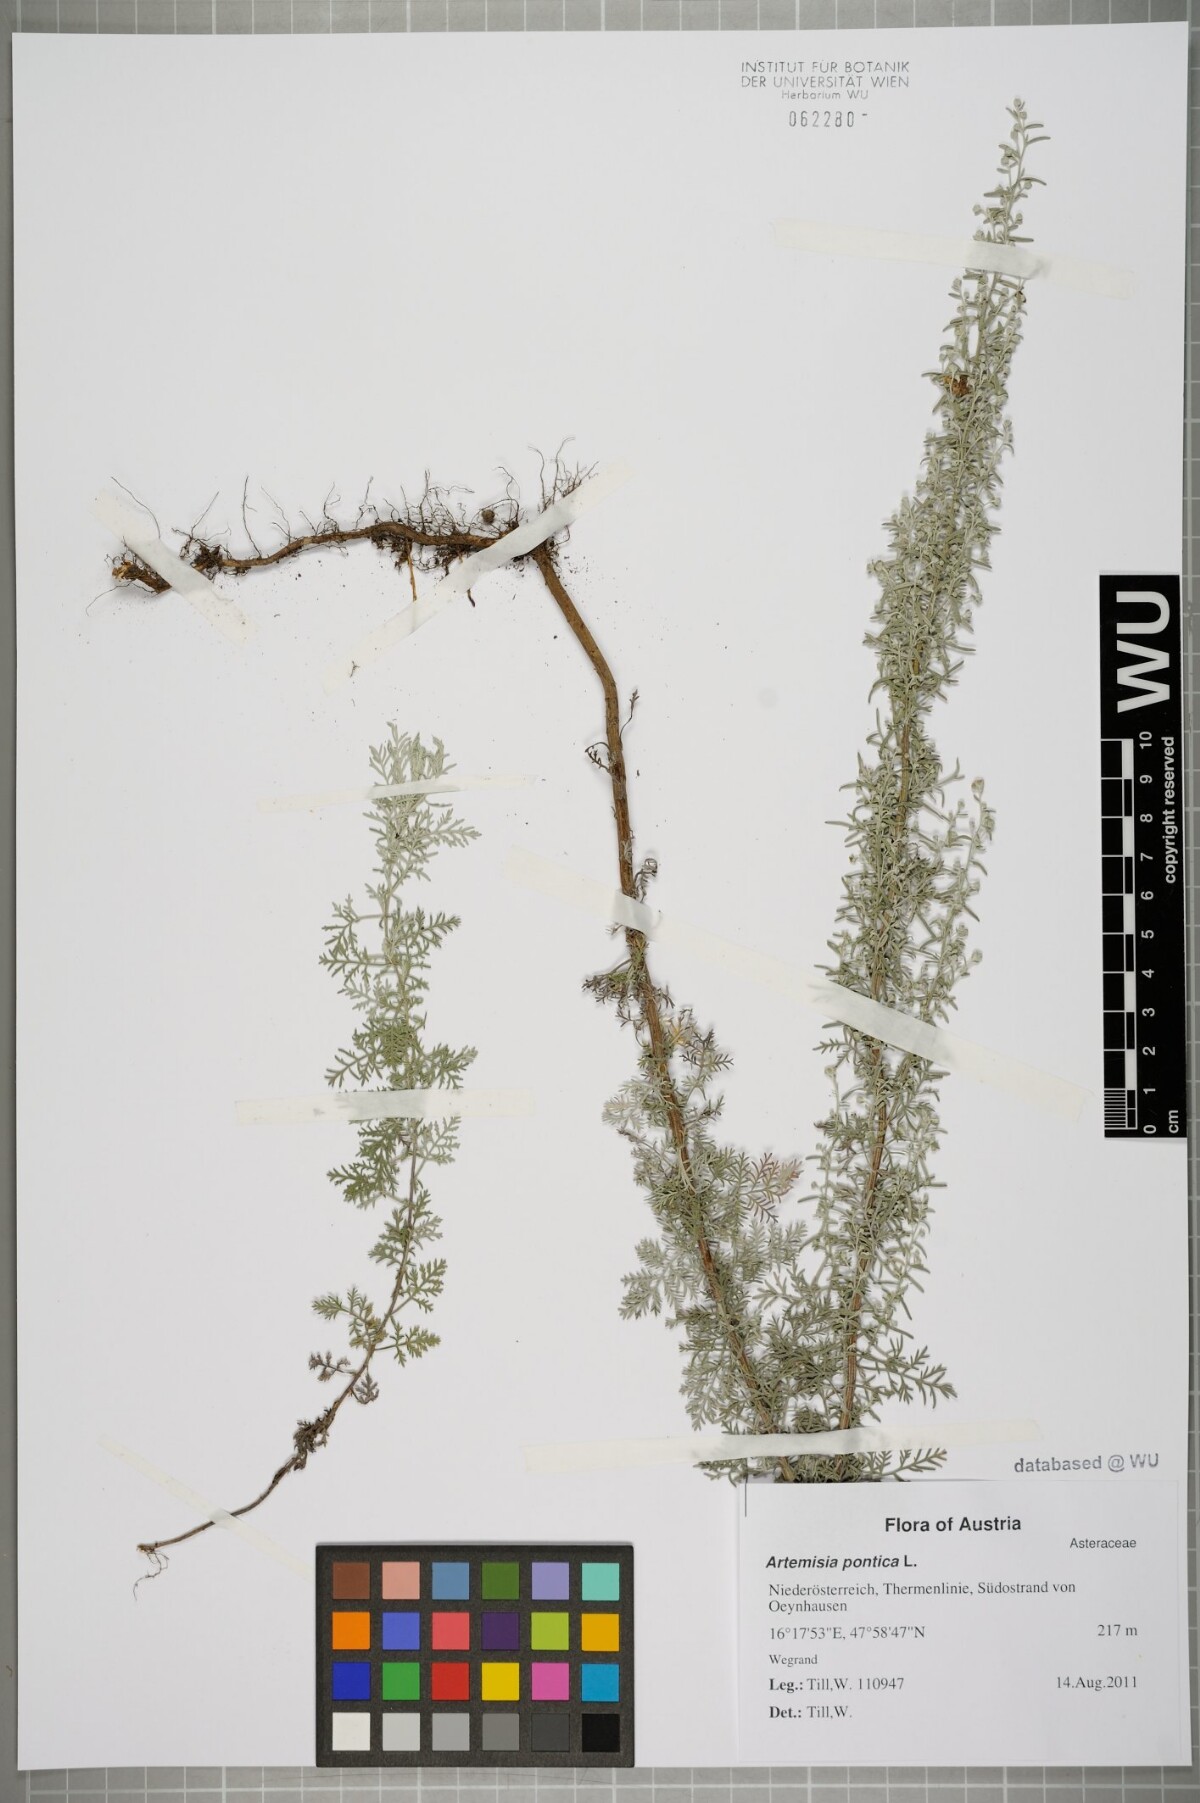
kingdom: Plantae
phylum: Tracheophyta
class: Magnoliopsida
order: Asterales
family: Asteraceae
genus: Artemisia
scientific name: Artemisia pontica
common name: Roman wormwood
